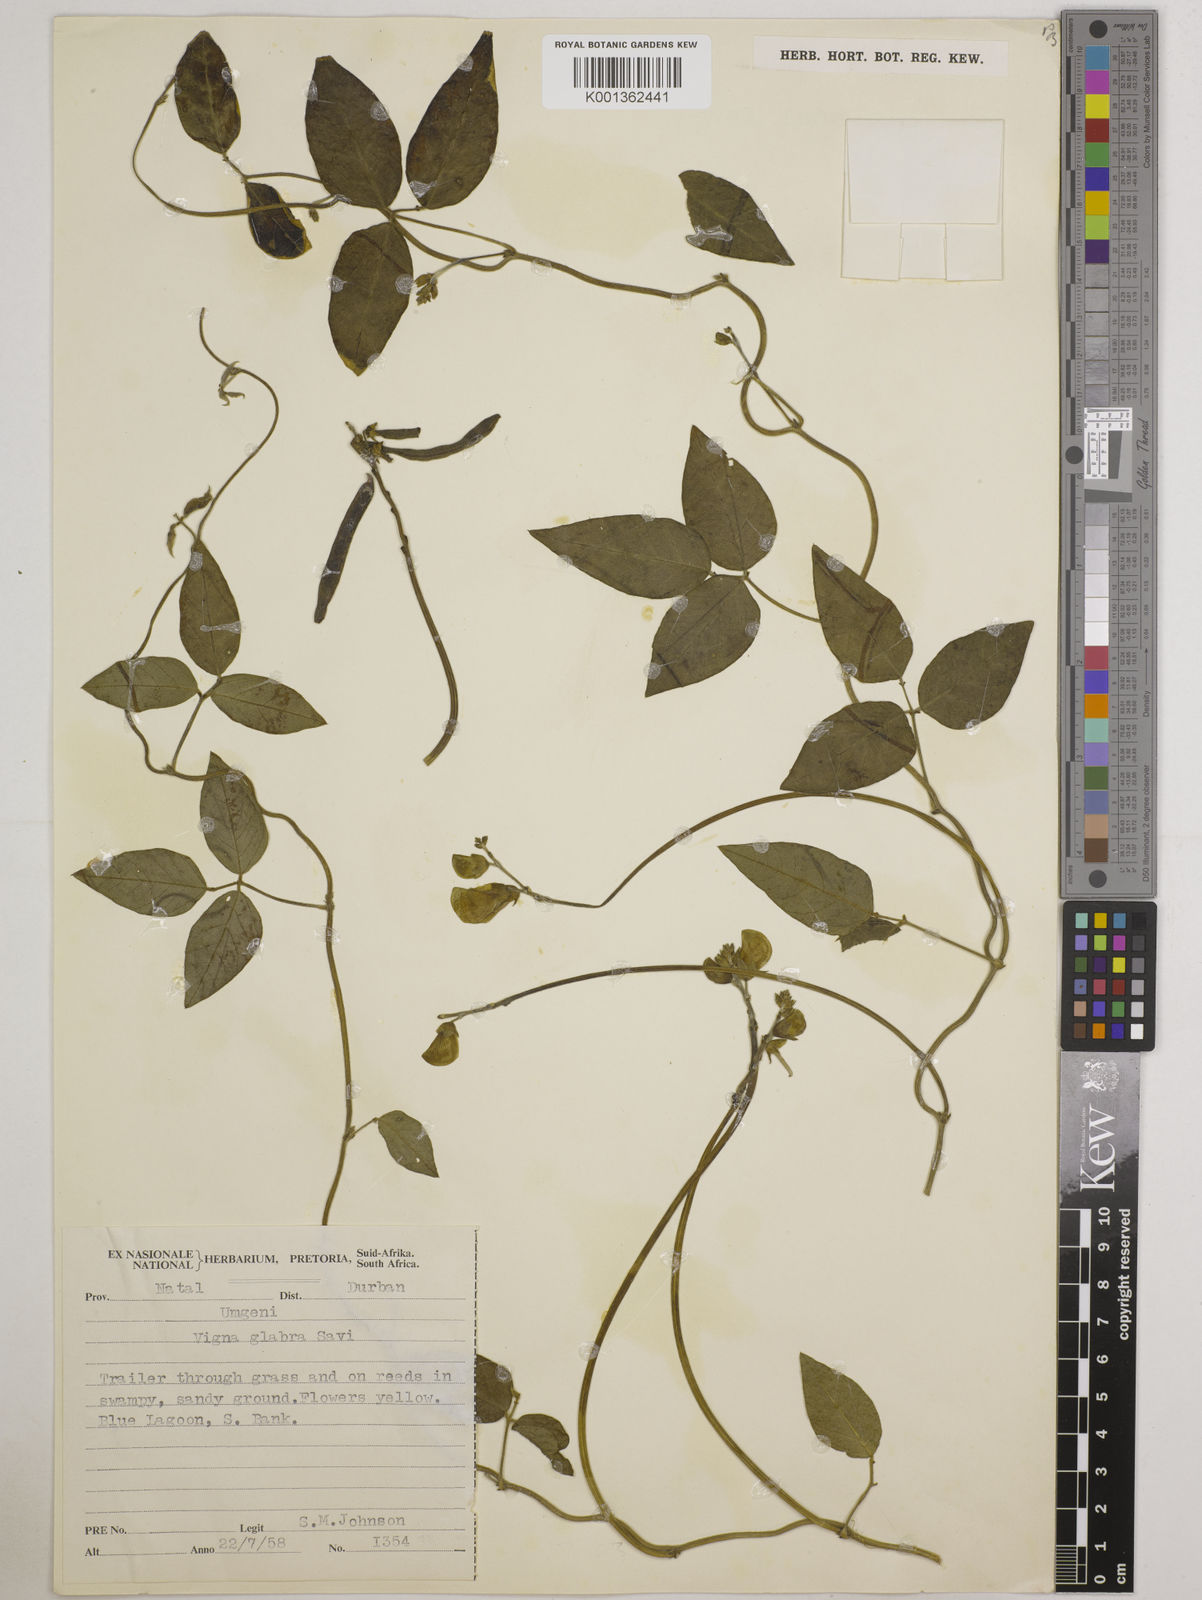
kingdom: Plantae
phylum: Tracheophyta
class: Magnoliopsida
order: Fabales
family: Fabaceae
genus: Vigna
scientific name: Vigna luteola
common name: Hairypod cowpea
